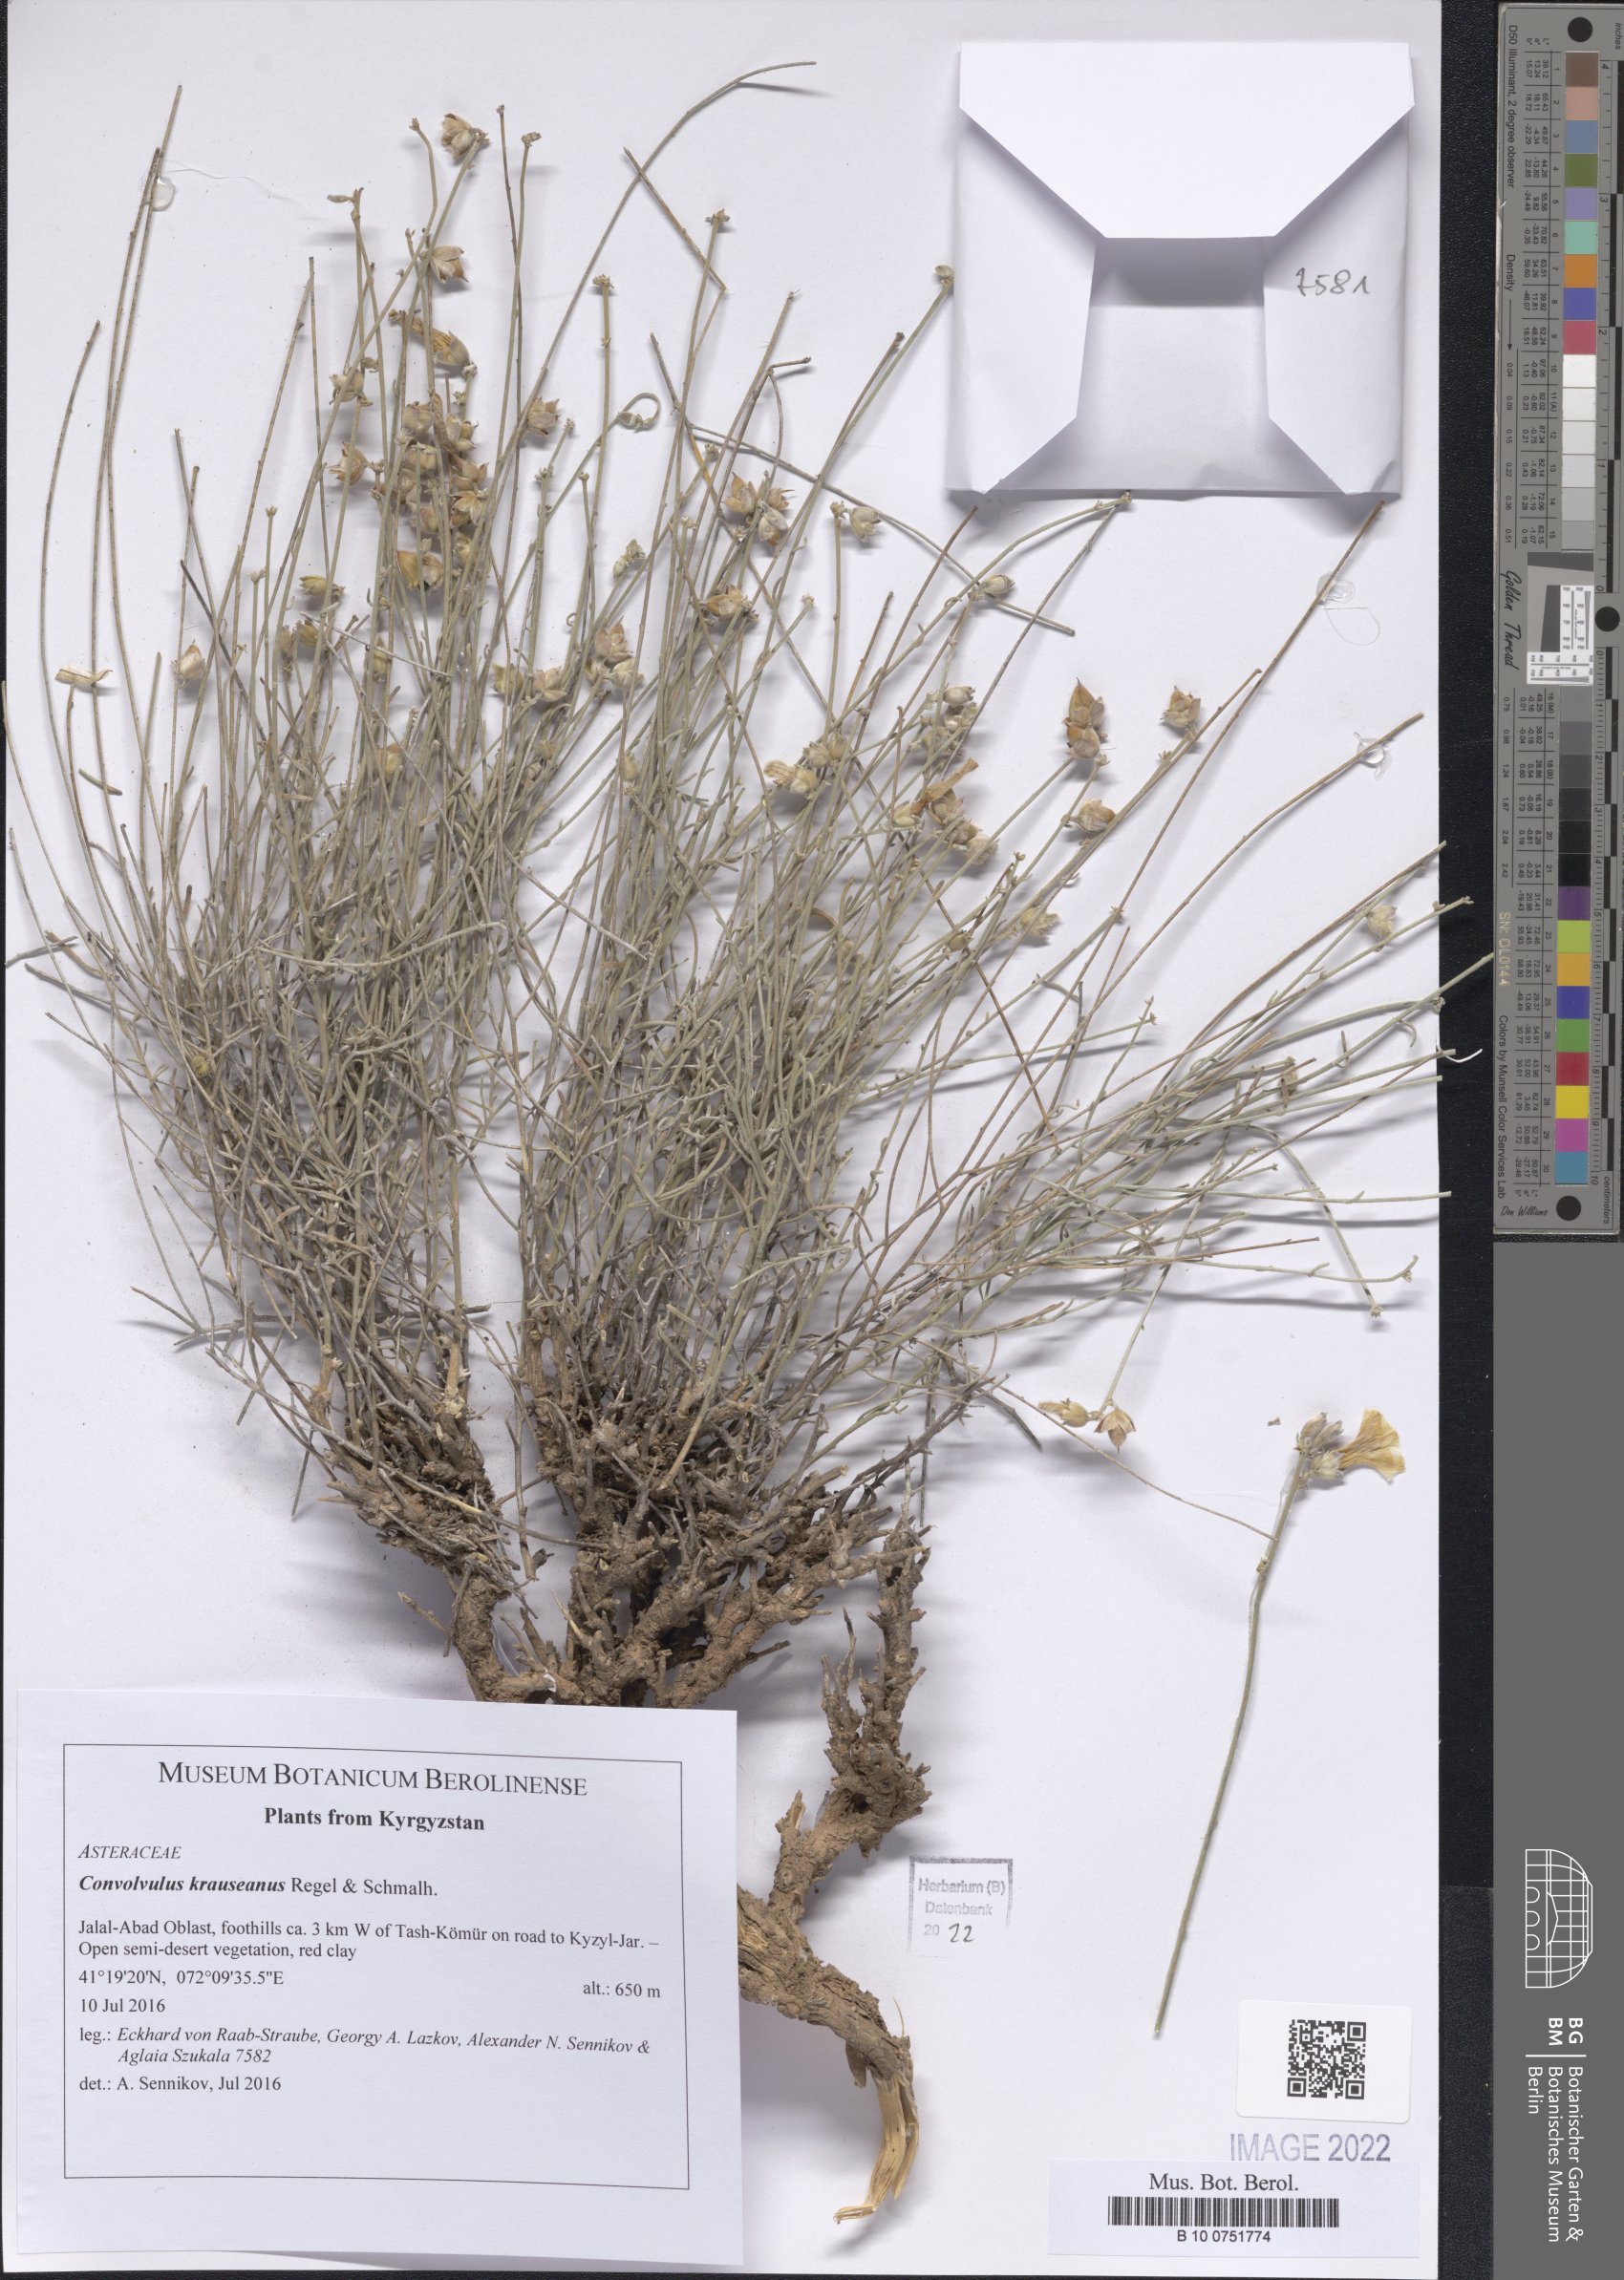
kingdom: Plantae
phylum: Tracheophyta
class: Magnoliopsida
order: Solanales
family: Convolvulaceae
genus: Convolvulus
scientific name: Convolvulus krauseanus
